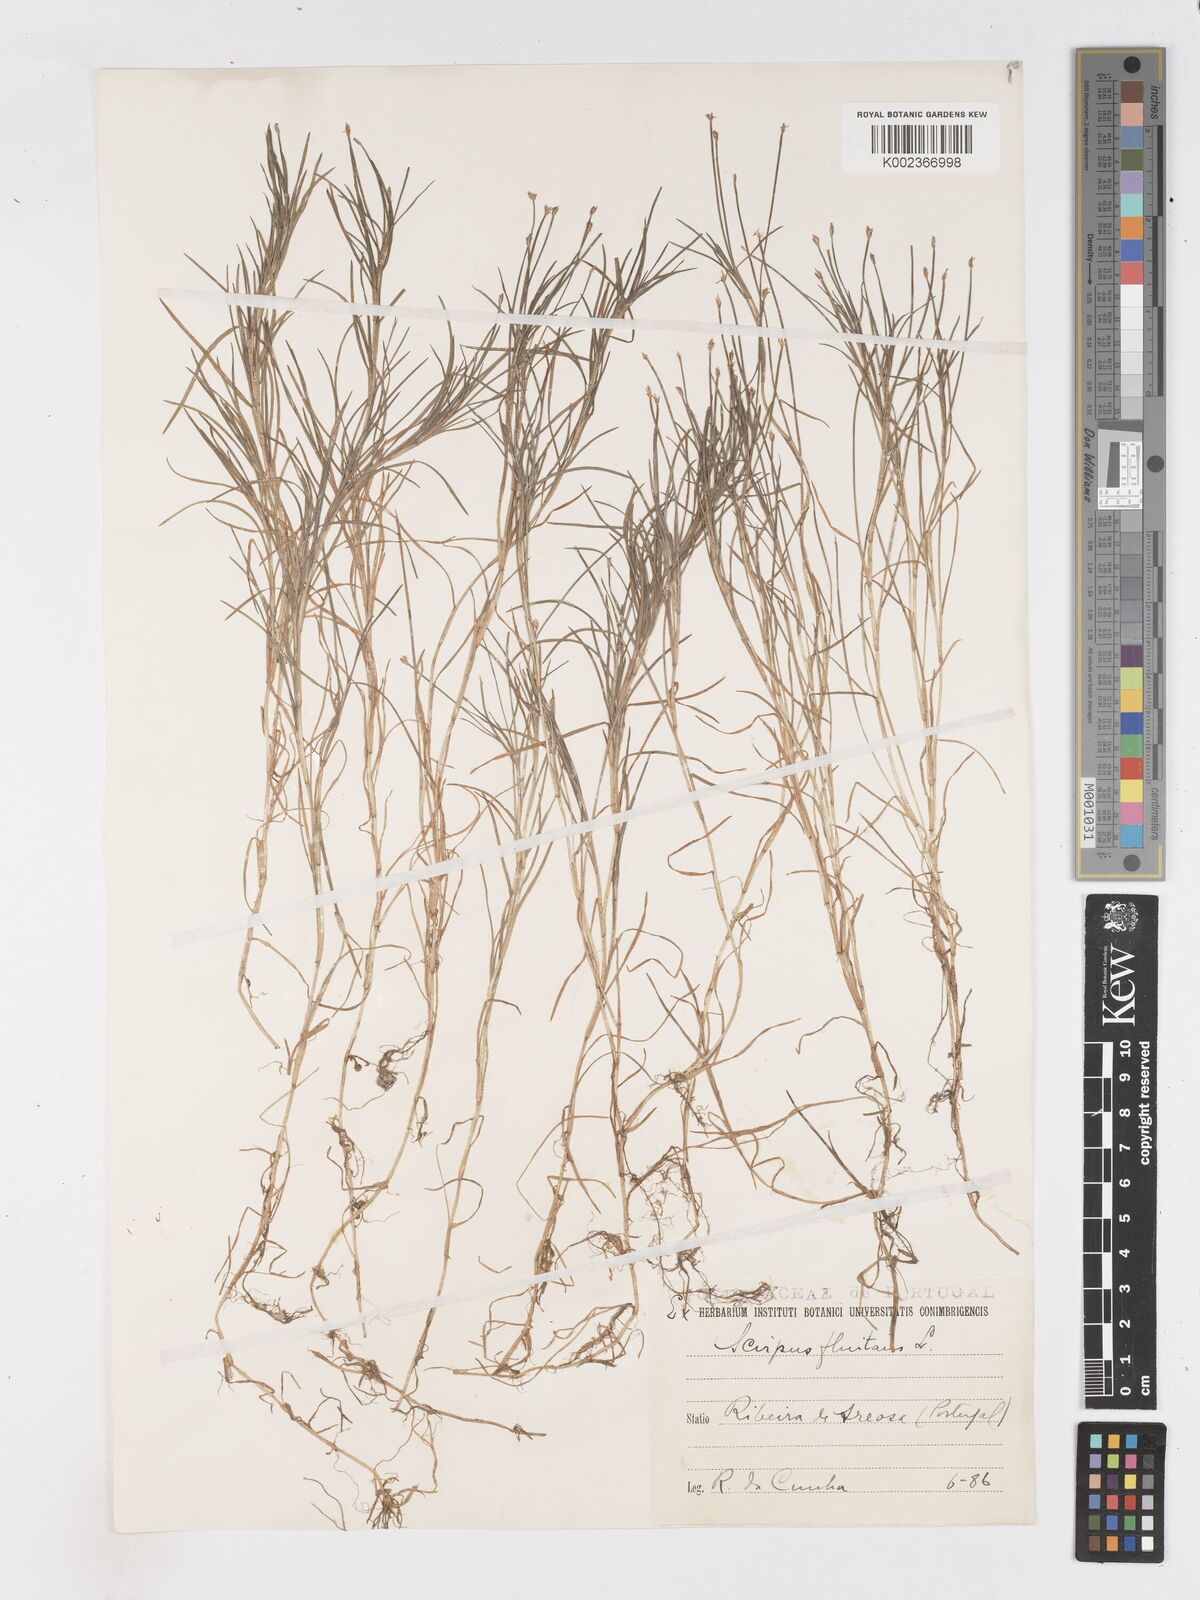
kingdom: Plantae
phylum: Tracheophyta
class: Liliopsida
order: Poales
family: Cyperaceae
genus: Isolepis
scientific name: Isolepis fluitans
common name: Floating club-rush
